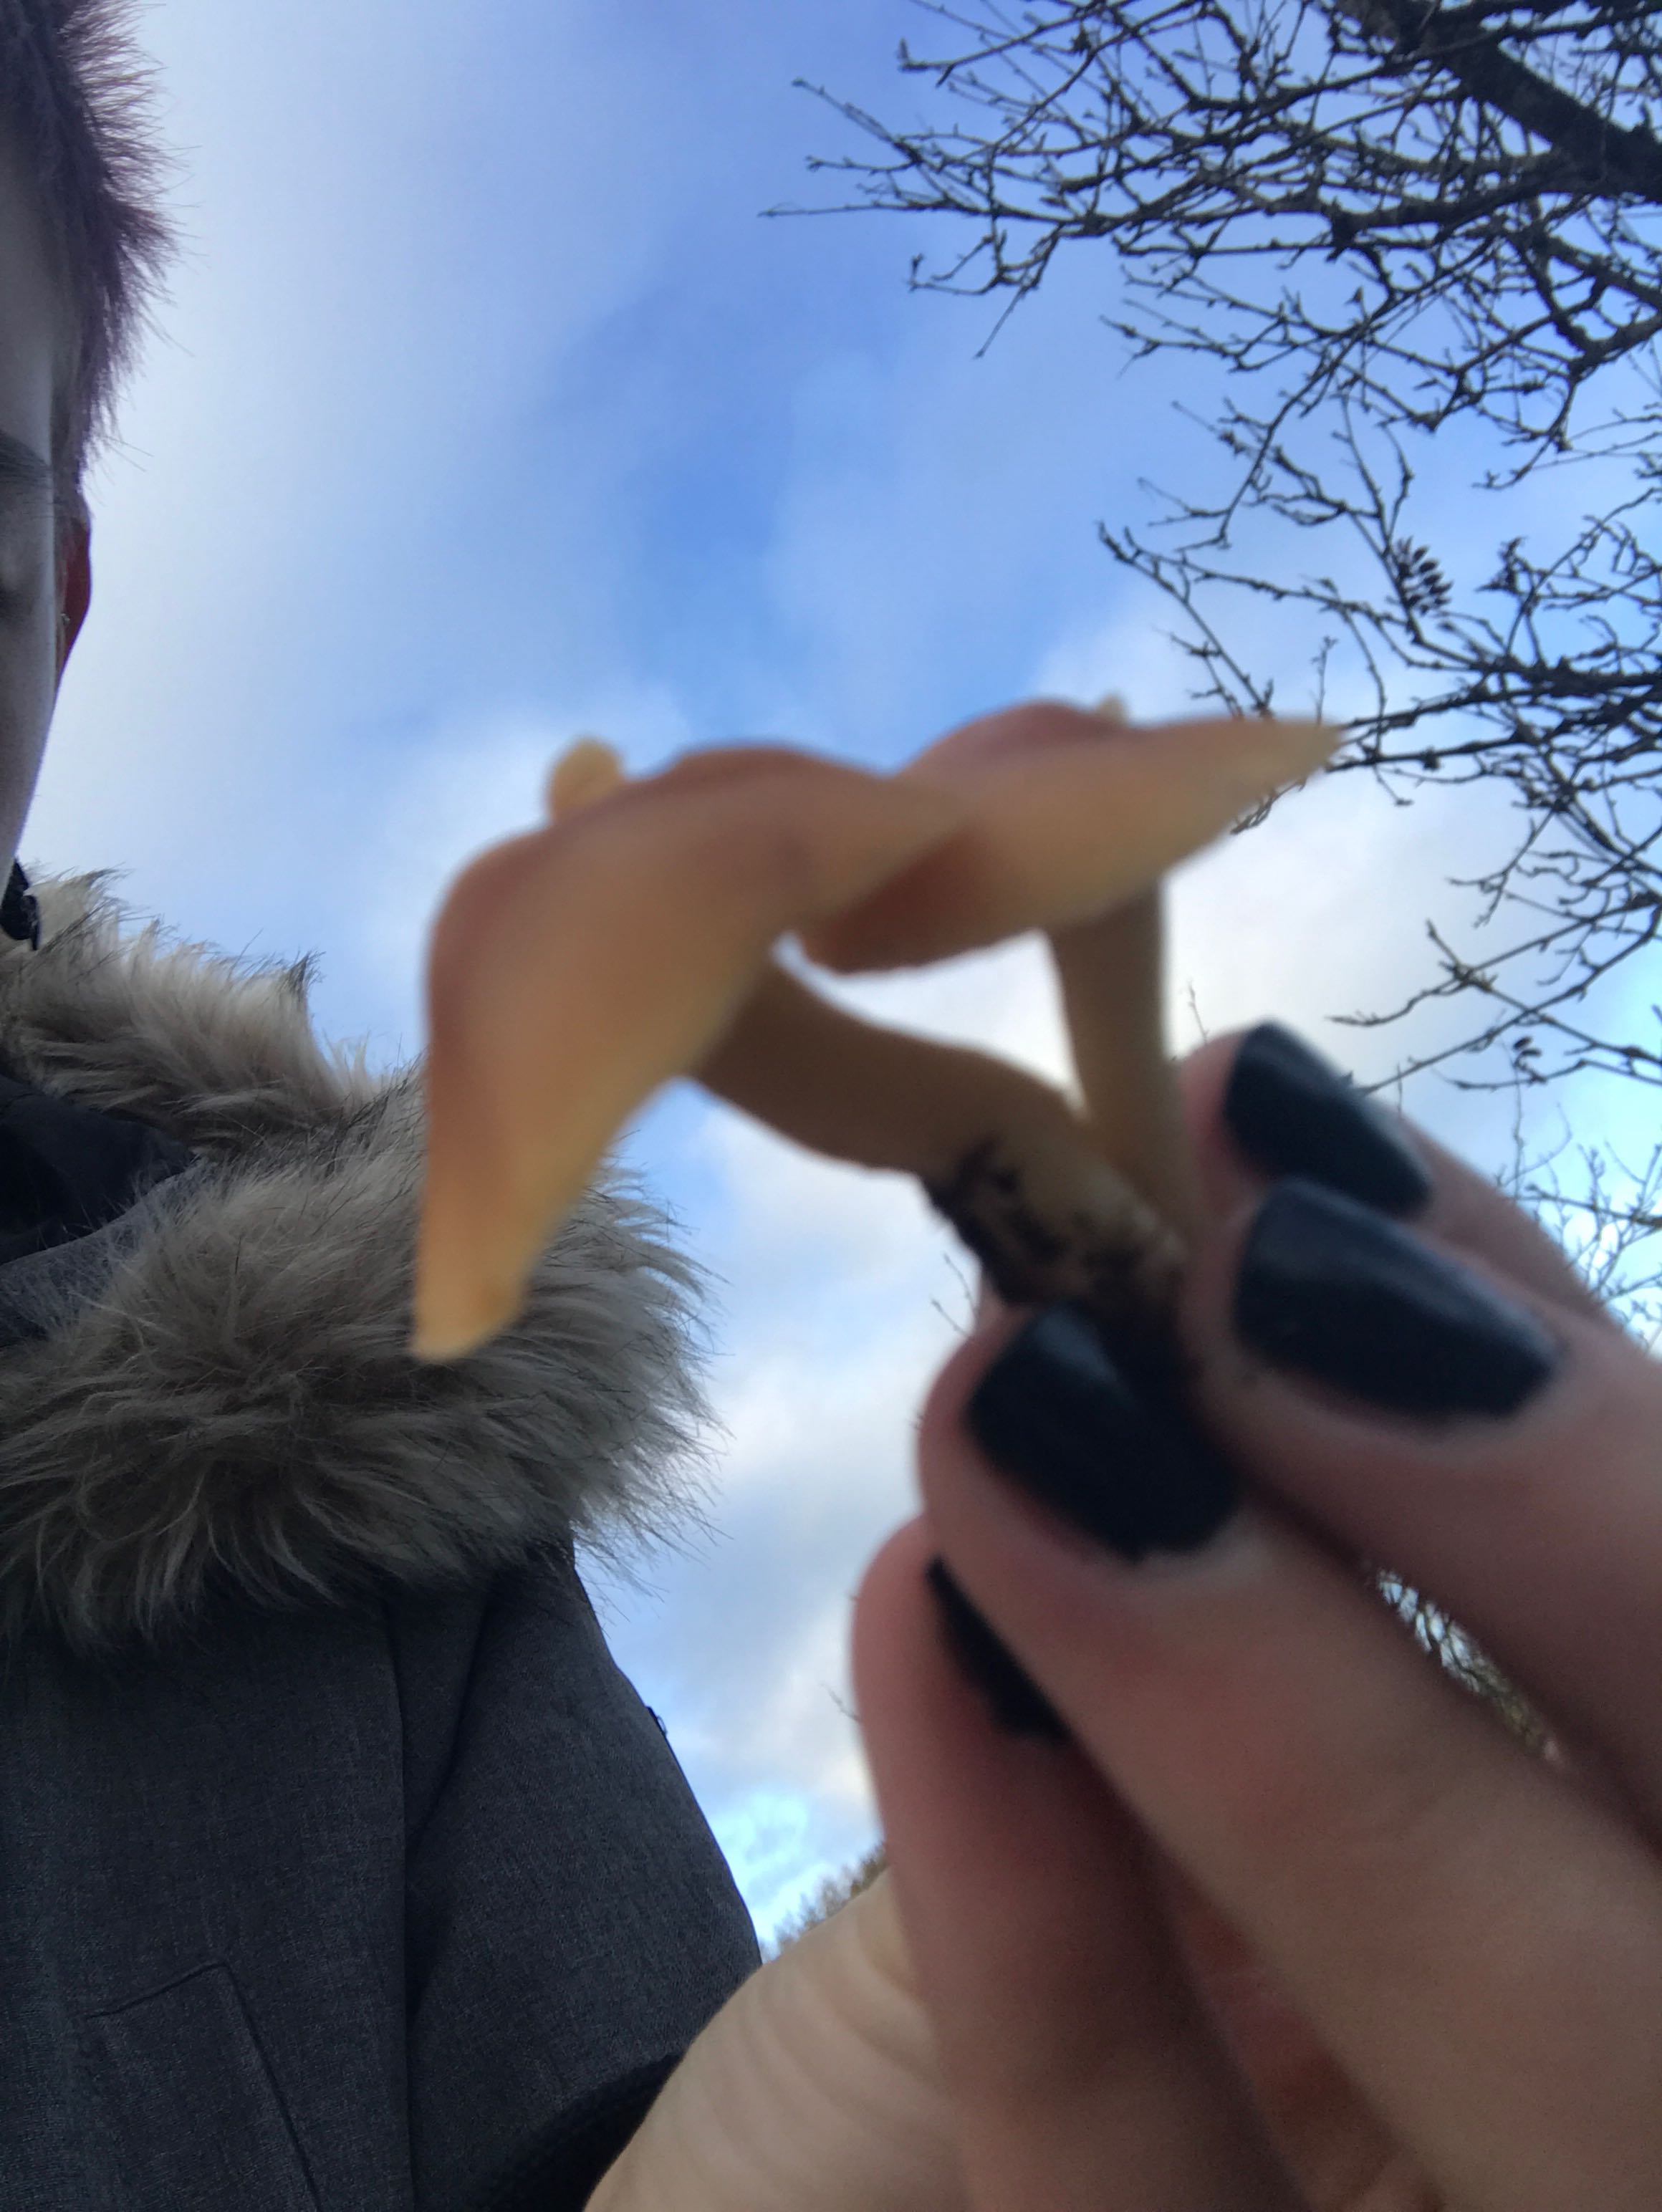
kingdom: Fungi
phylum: Basidiomycota
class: Agaricomycetes
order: Agaricales
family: Hygrophoraceae
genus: Cuphophyllus
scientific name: Cuphophyllus pratensis
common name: eng-vokshat
